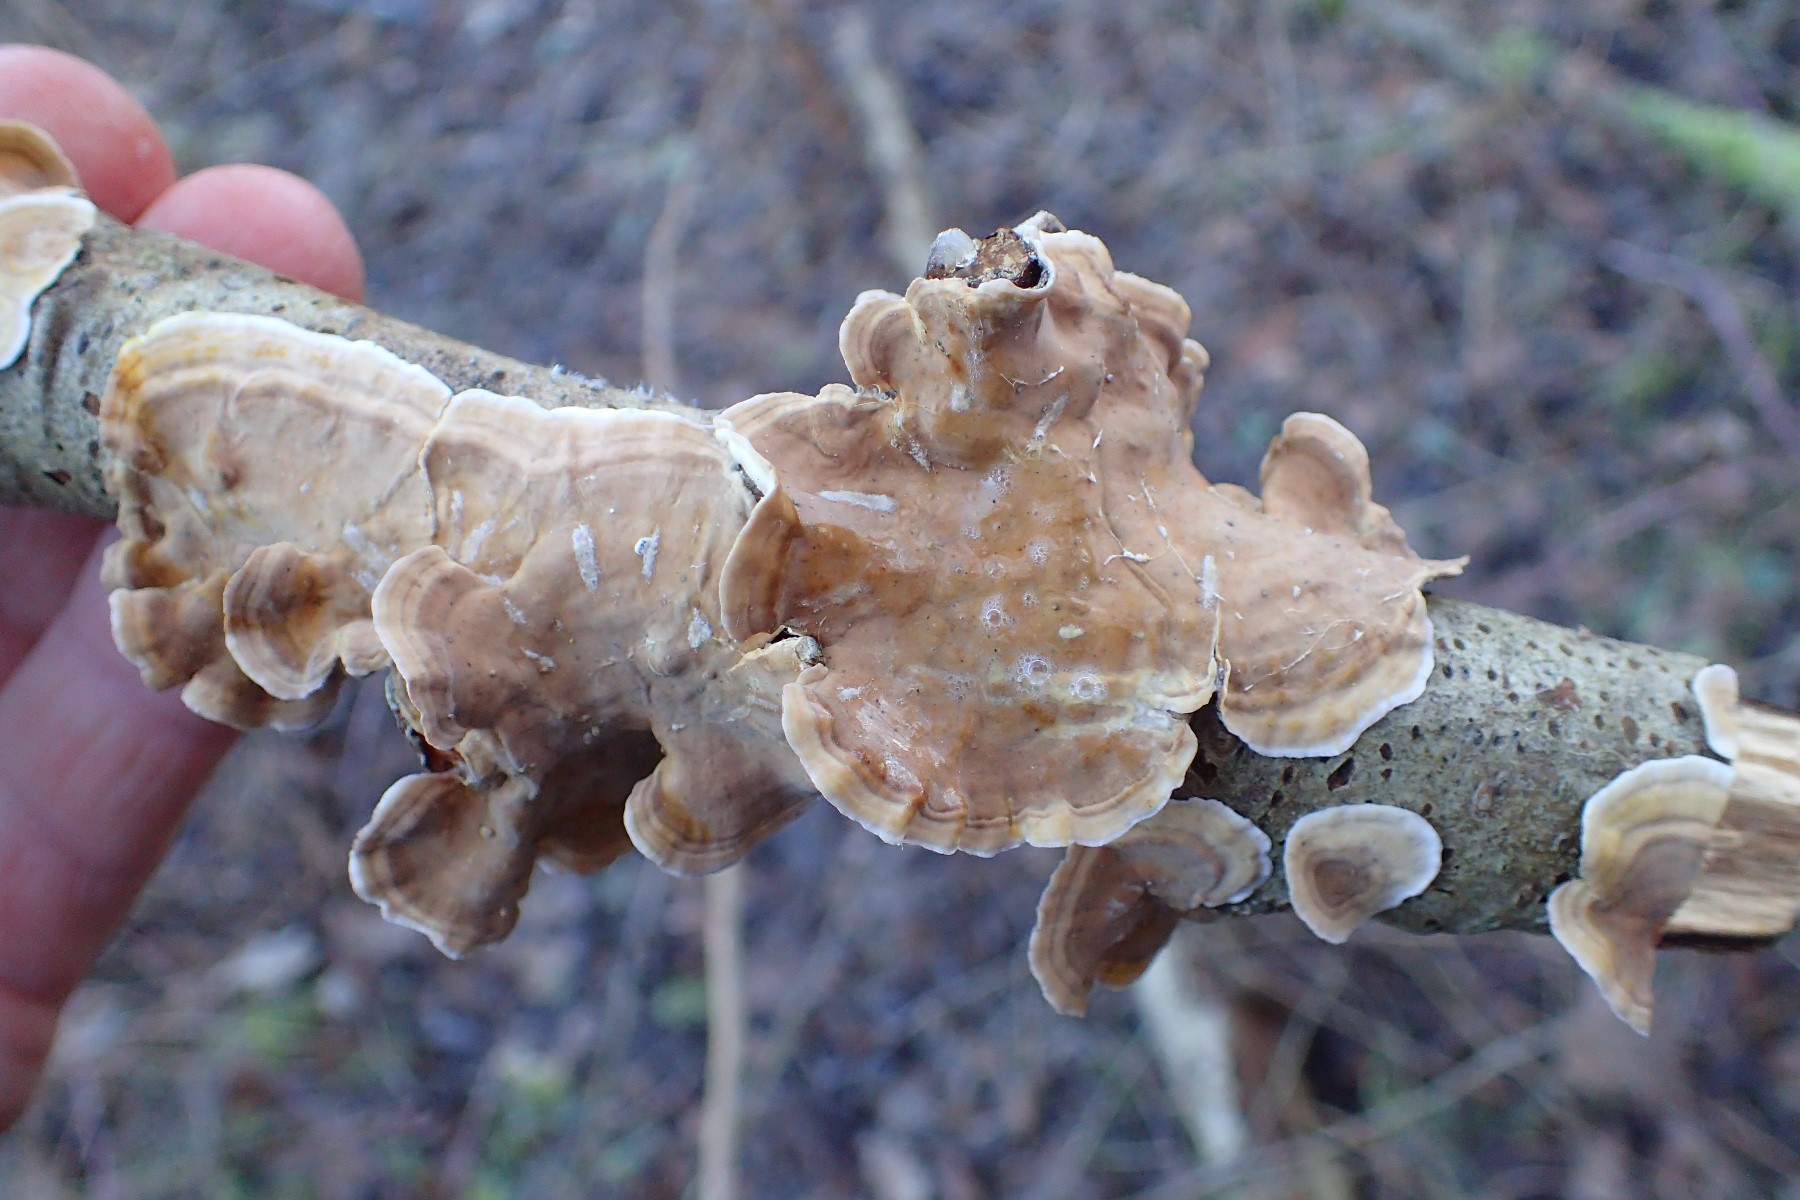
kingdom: Fungi
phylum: Basidiomycota
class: Agaricomycetes
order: Russulales
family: Stereaceae
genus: Stereum
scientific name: Stereum subtomentosum
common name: smuk lædersvamp
